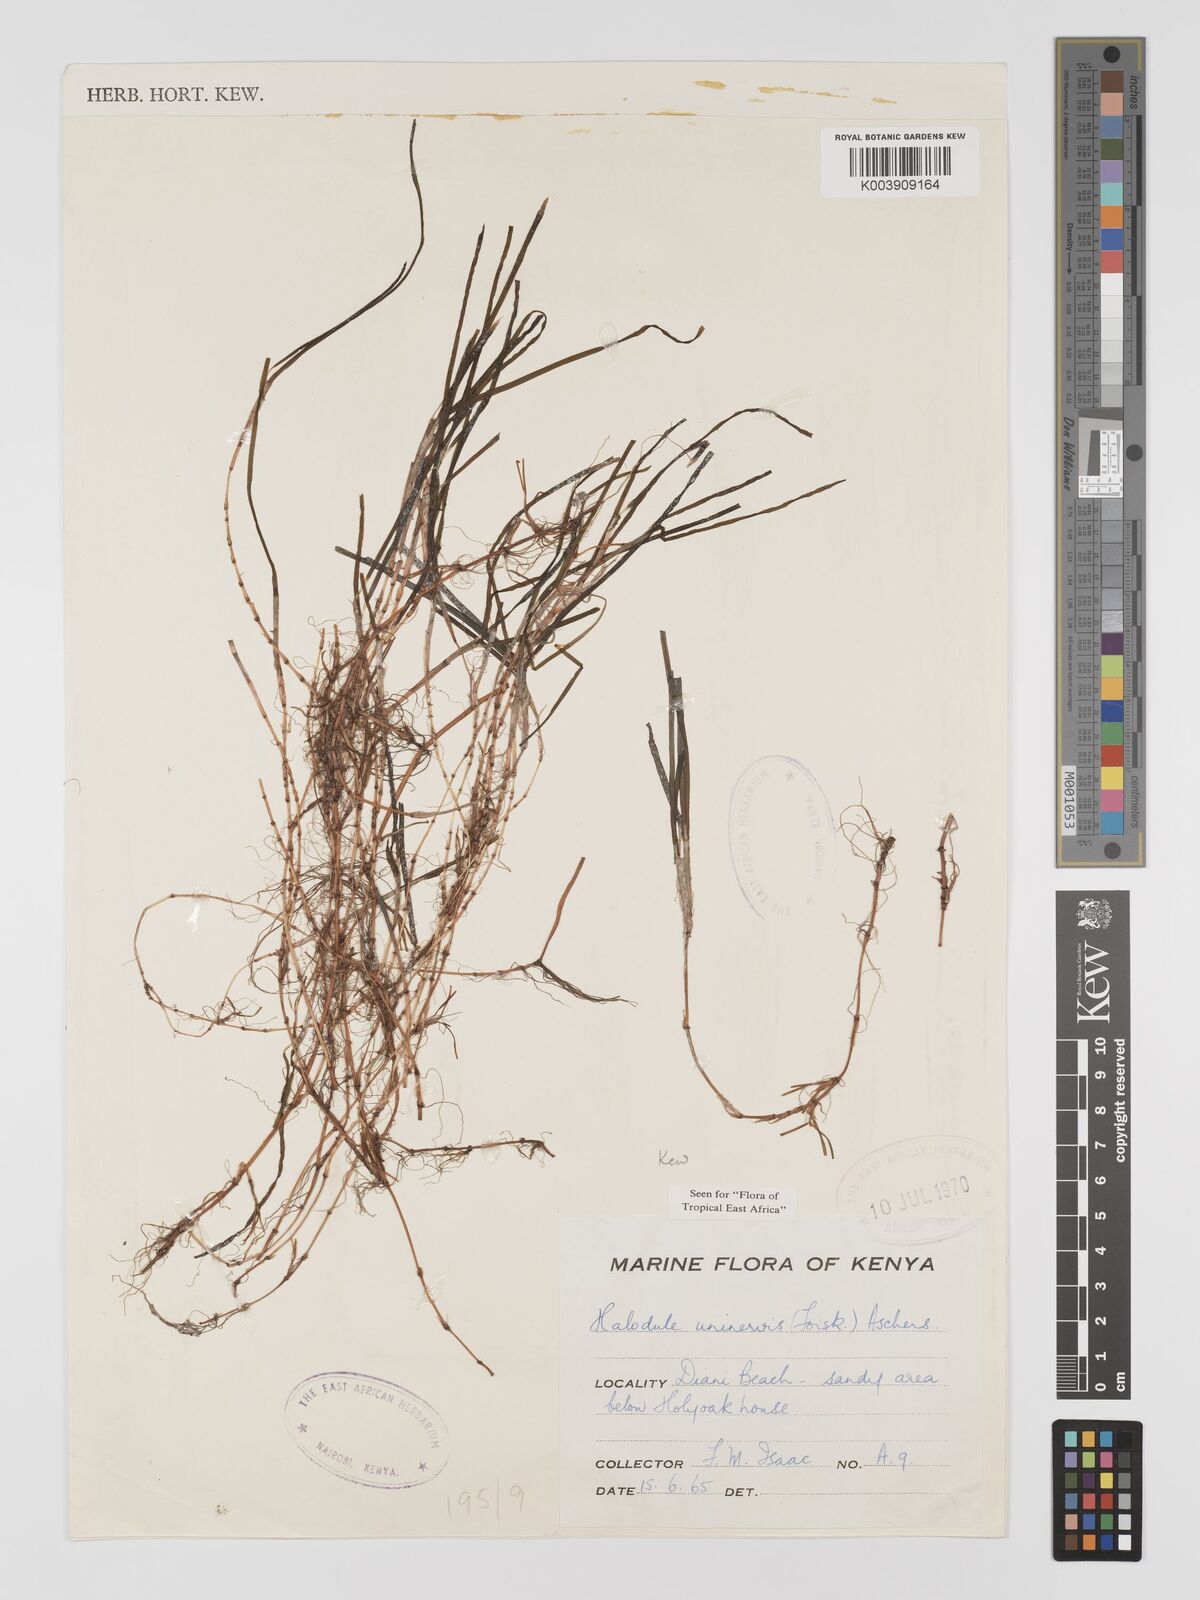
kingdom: Plantae
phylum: Tracheophyta
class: Liliopsida
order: Alismatales
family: Cymodoceaceae
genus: Halodule
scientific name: Halodule uninervis
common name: Narrowleaf seagrass
